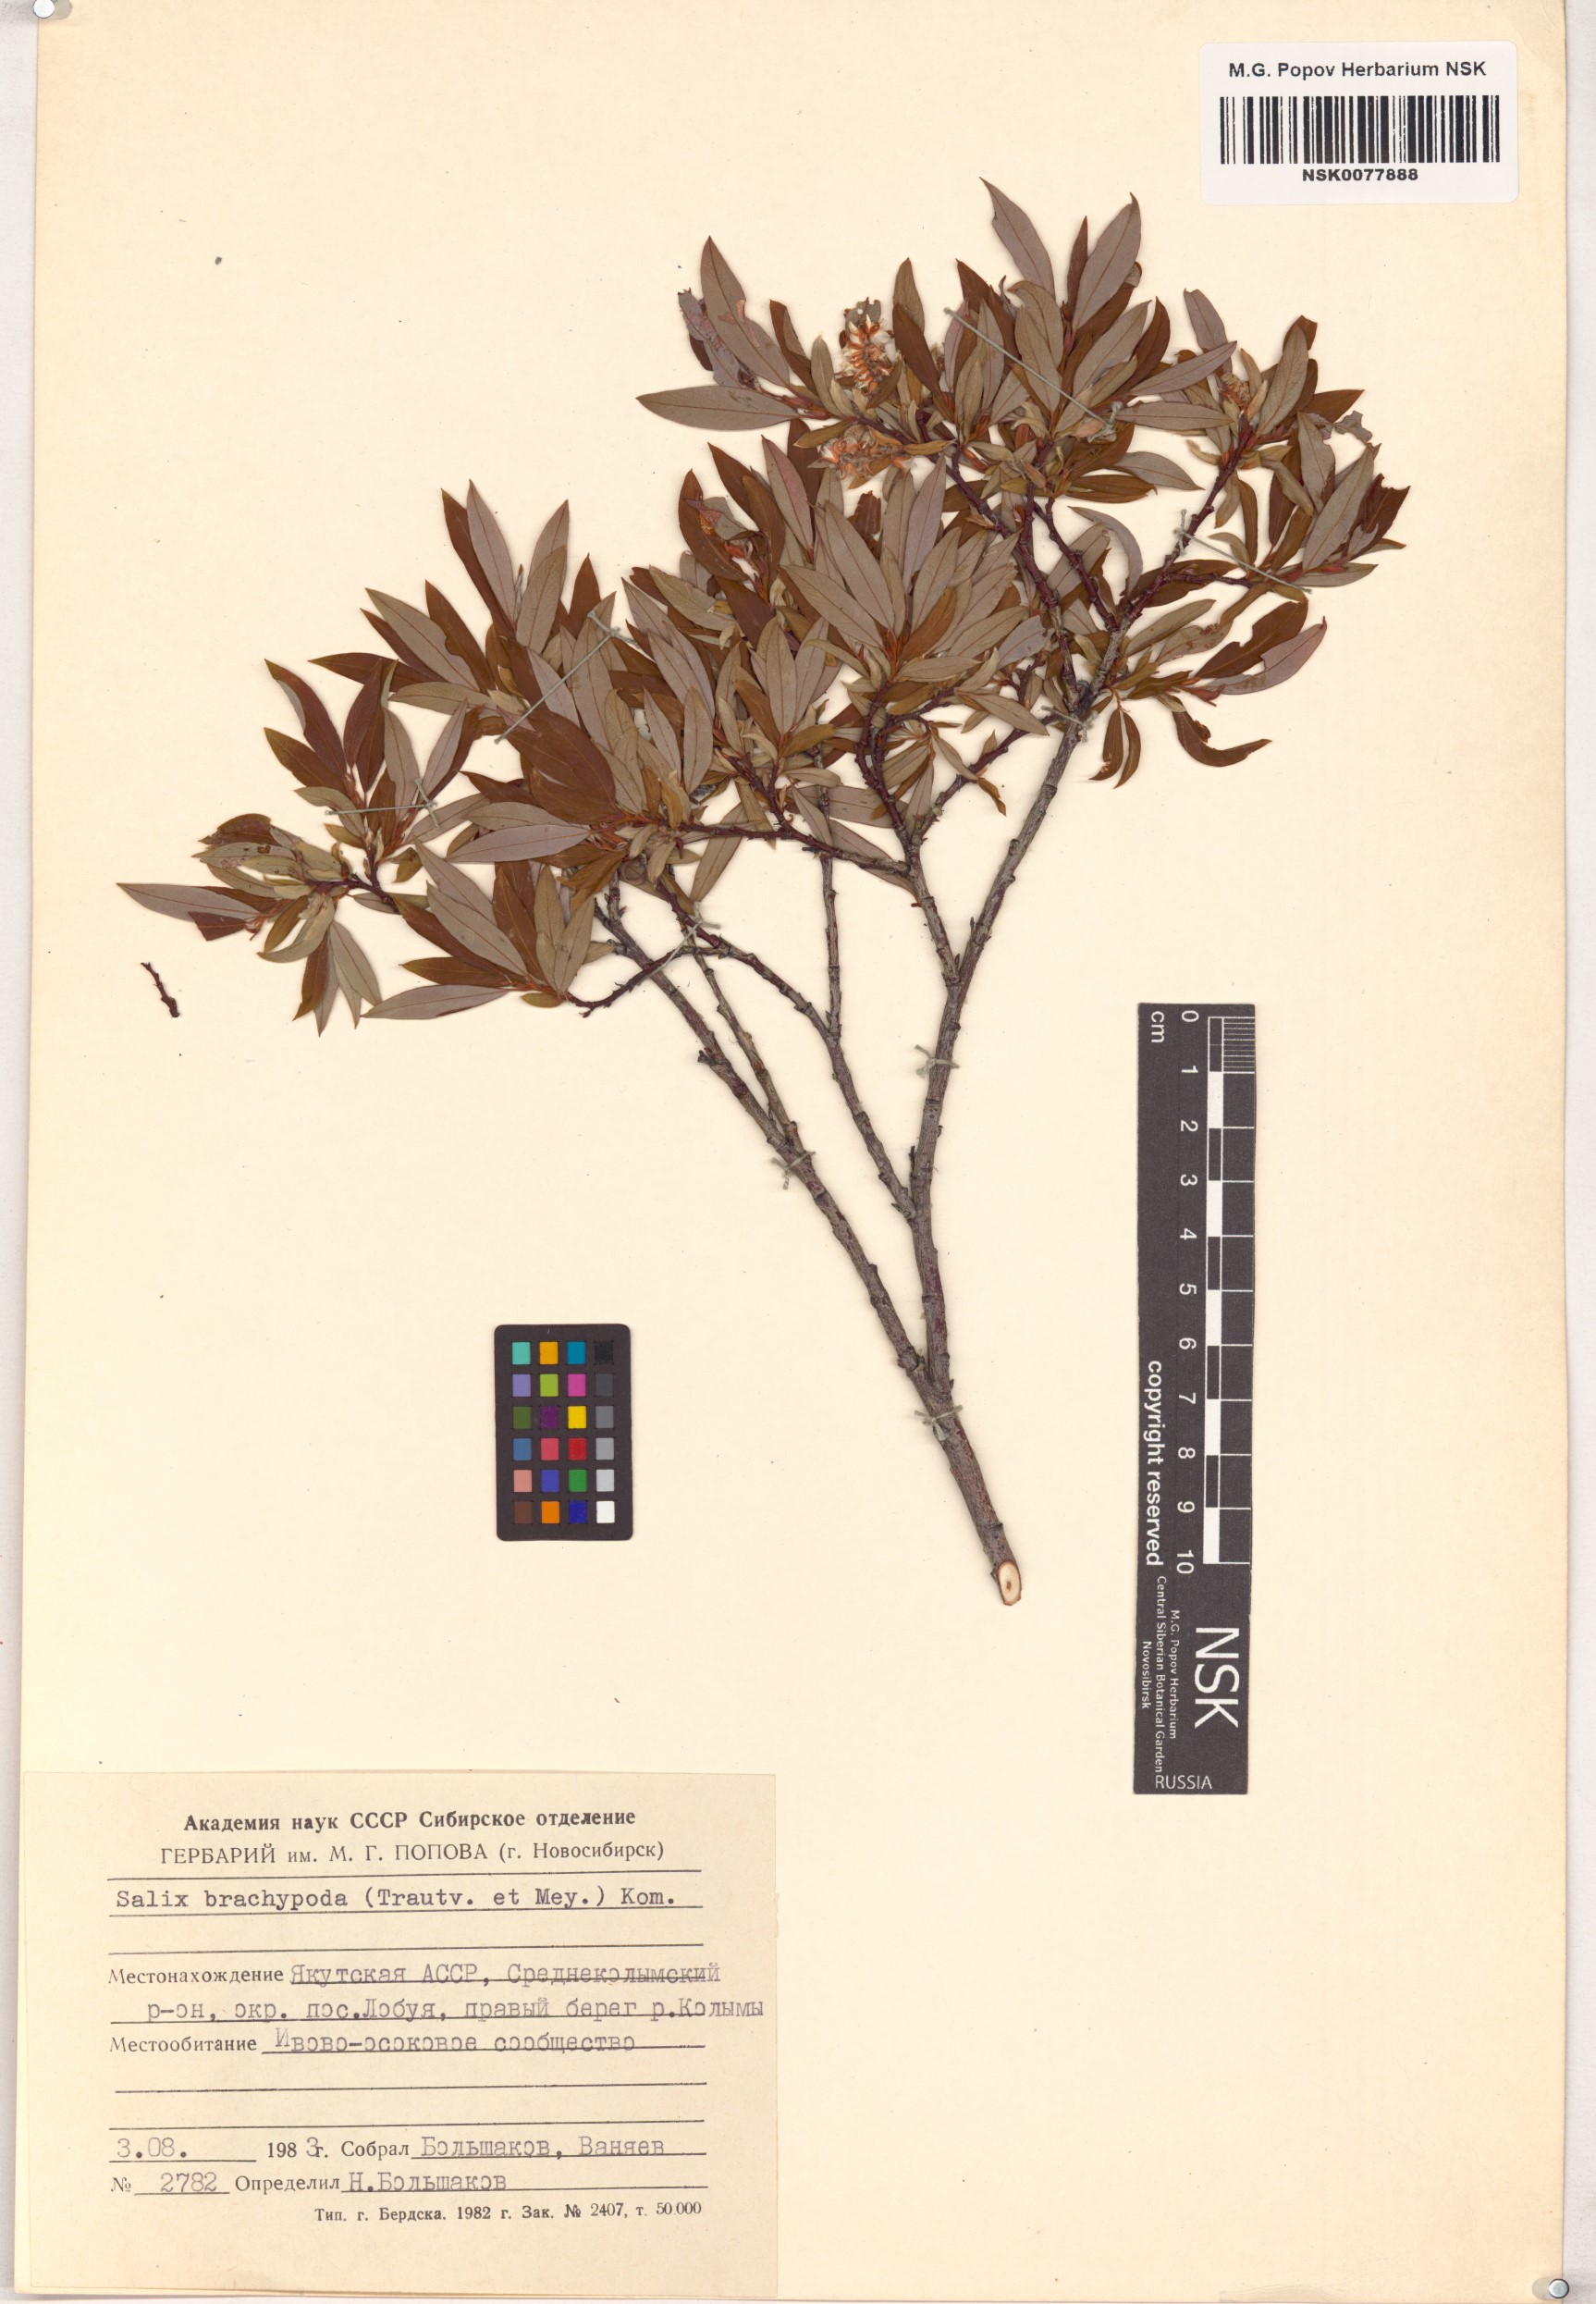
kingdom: Plantae
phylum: Tracheophyta
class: Magnoliopsida
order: Malpighiales
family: Salicaceae
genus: Salix
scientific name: Salix brachypoda
